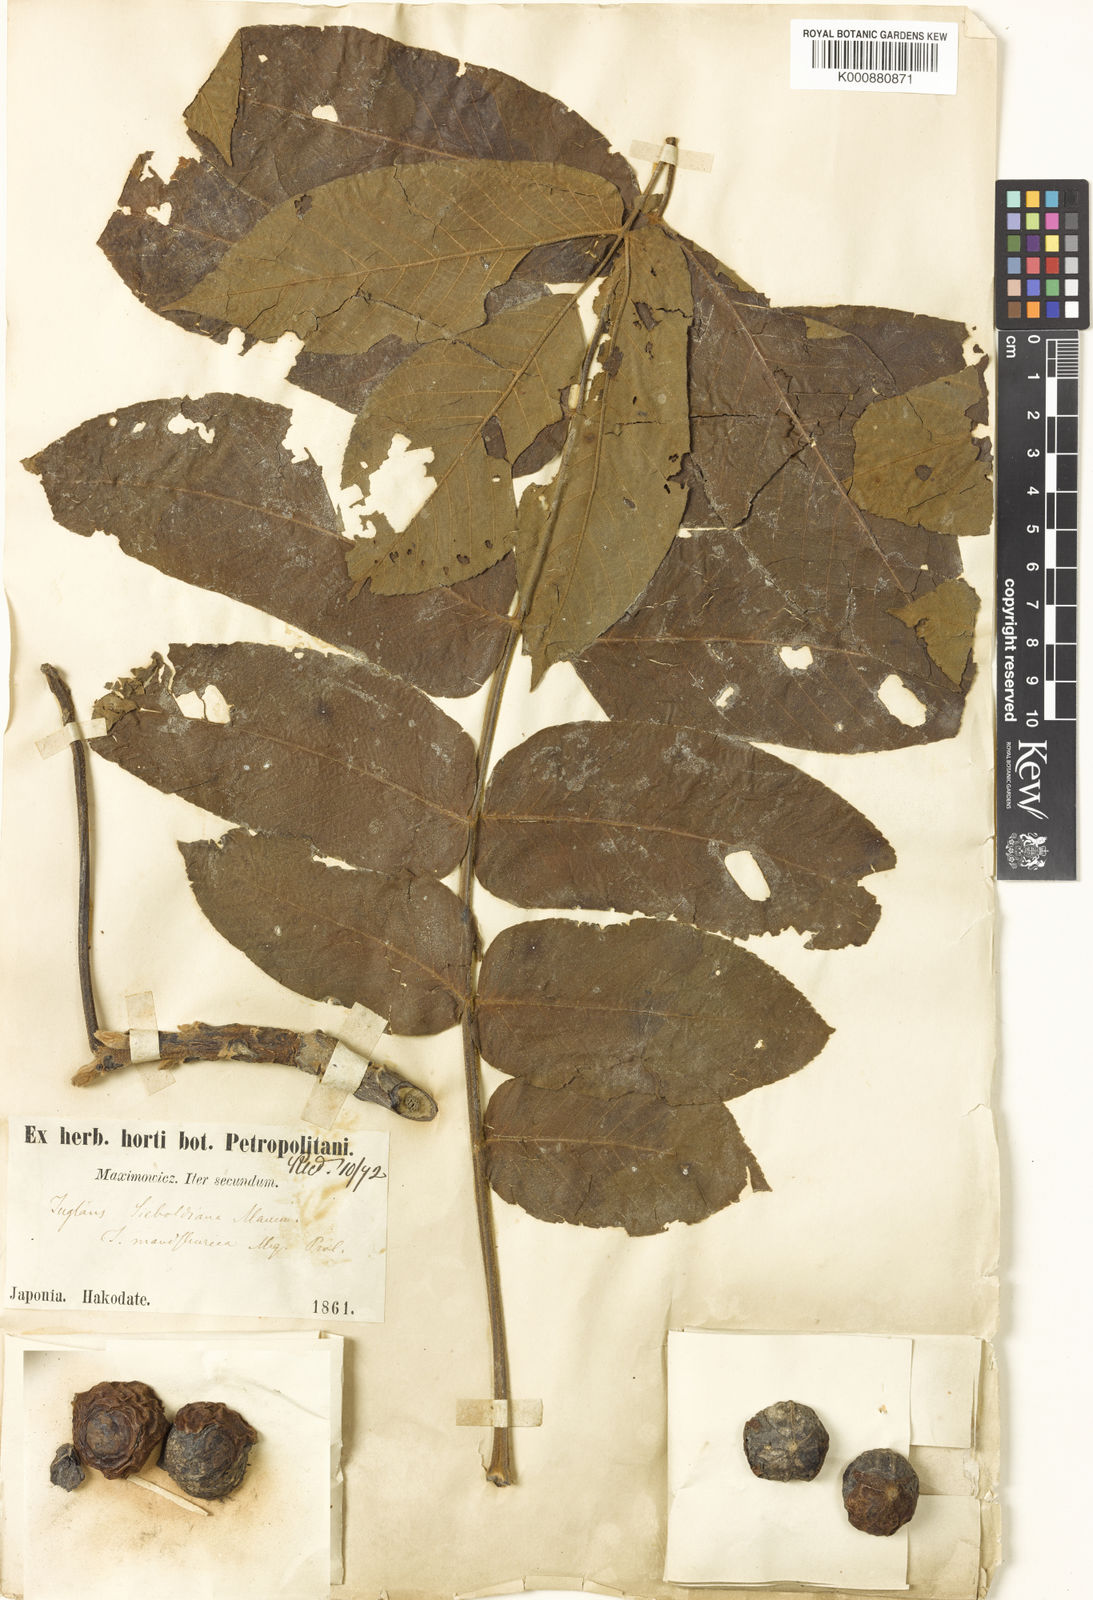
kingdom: Plantae
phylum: Tracheophyta
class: Magnoliopsida
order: Fagales
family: Juglandaceae
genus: Juglans
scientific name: Juglans
